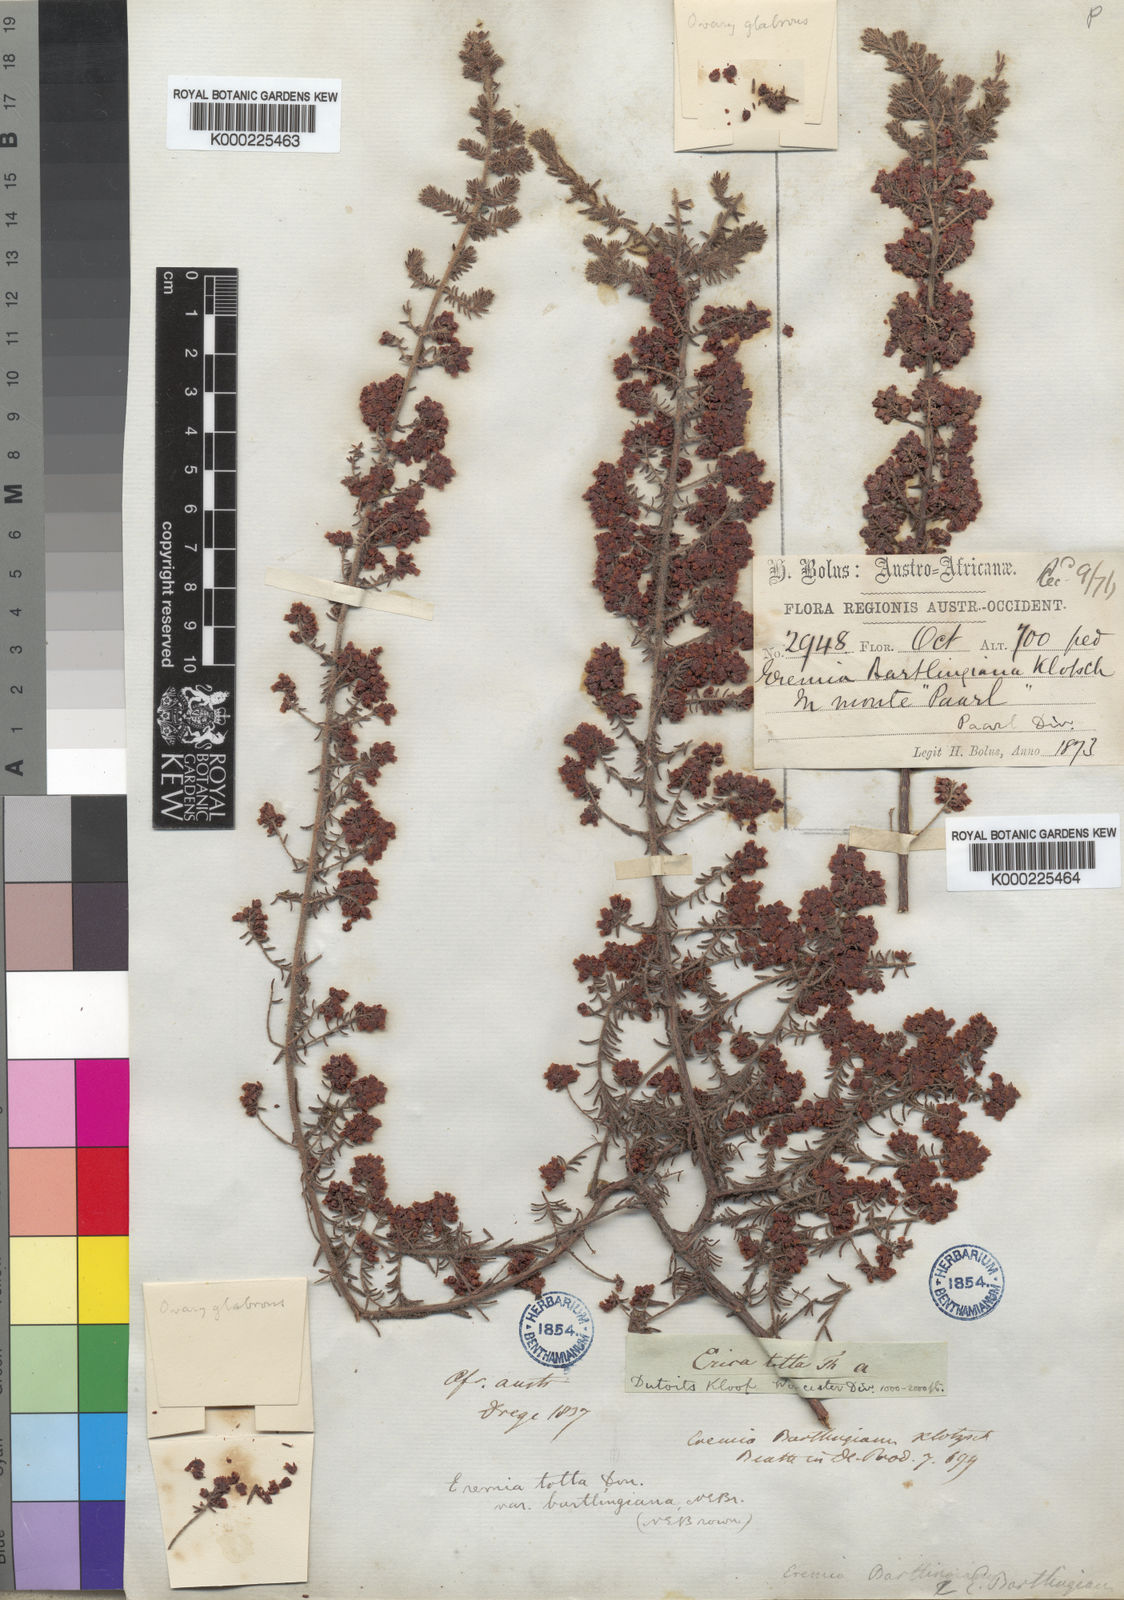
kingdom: Plantae
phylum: Tracheophyta
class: Magnoliopsida
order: Ericales
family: Ericaceae
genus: Erica
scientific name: Erica totta
